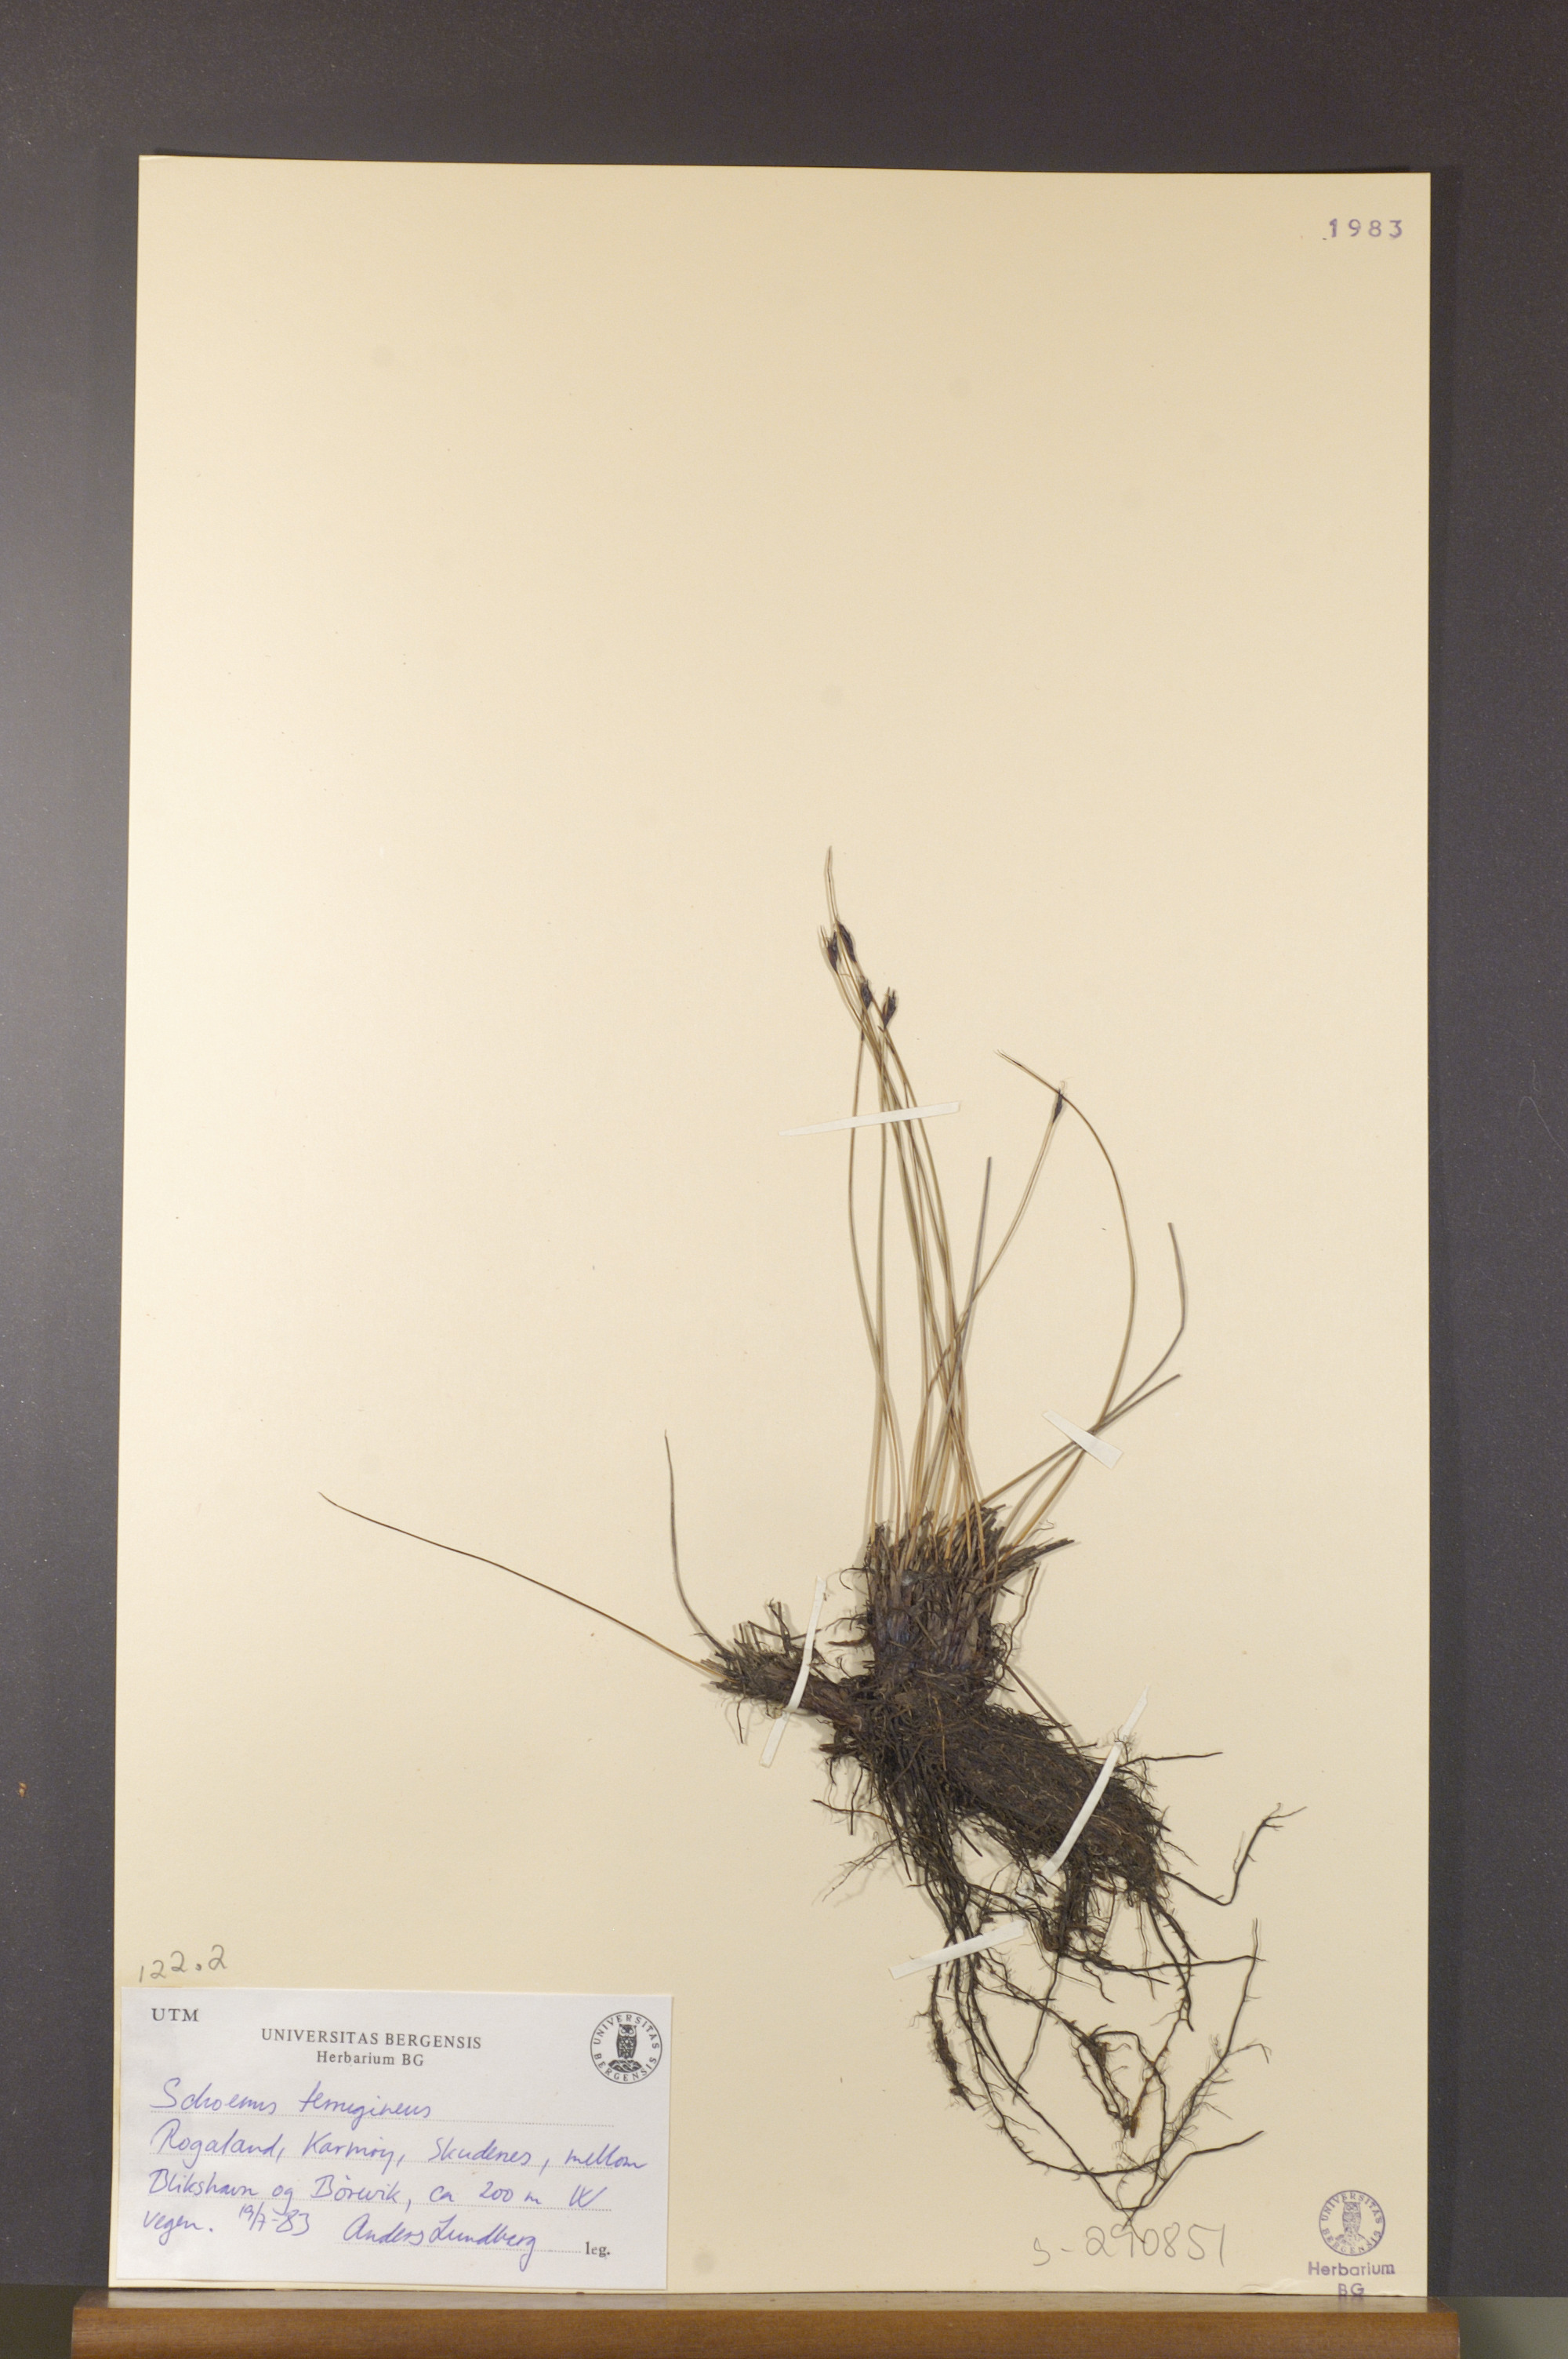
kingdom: Plantae
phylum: Tracheophyta
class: Liliopsida
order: Poales
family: Cyperaceae
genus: Schoenus
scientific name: Schoenus ferrugineus
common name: Brown bog-rush
